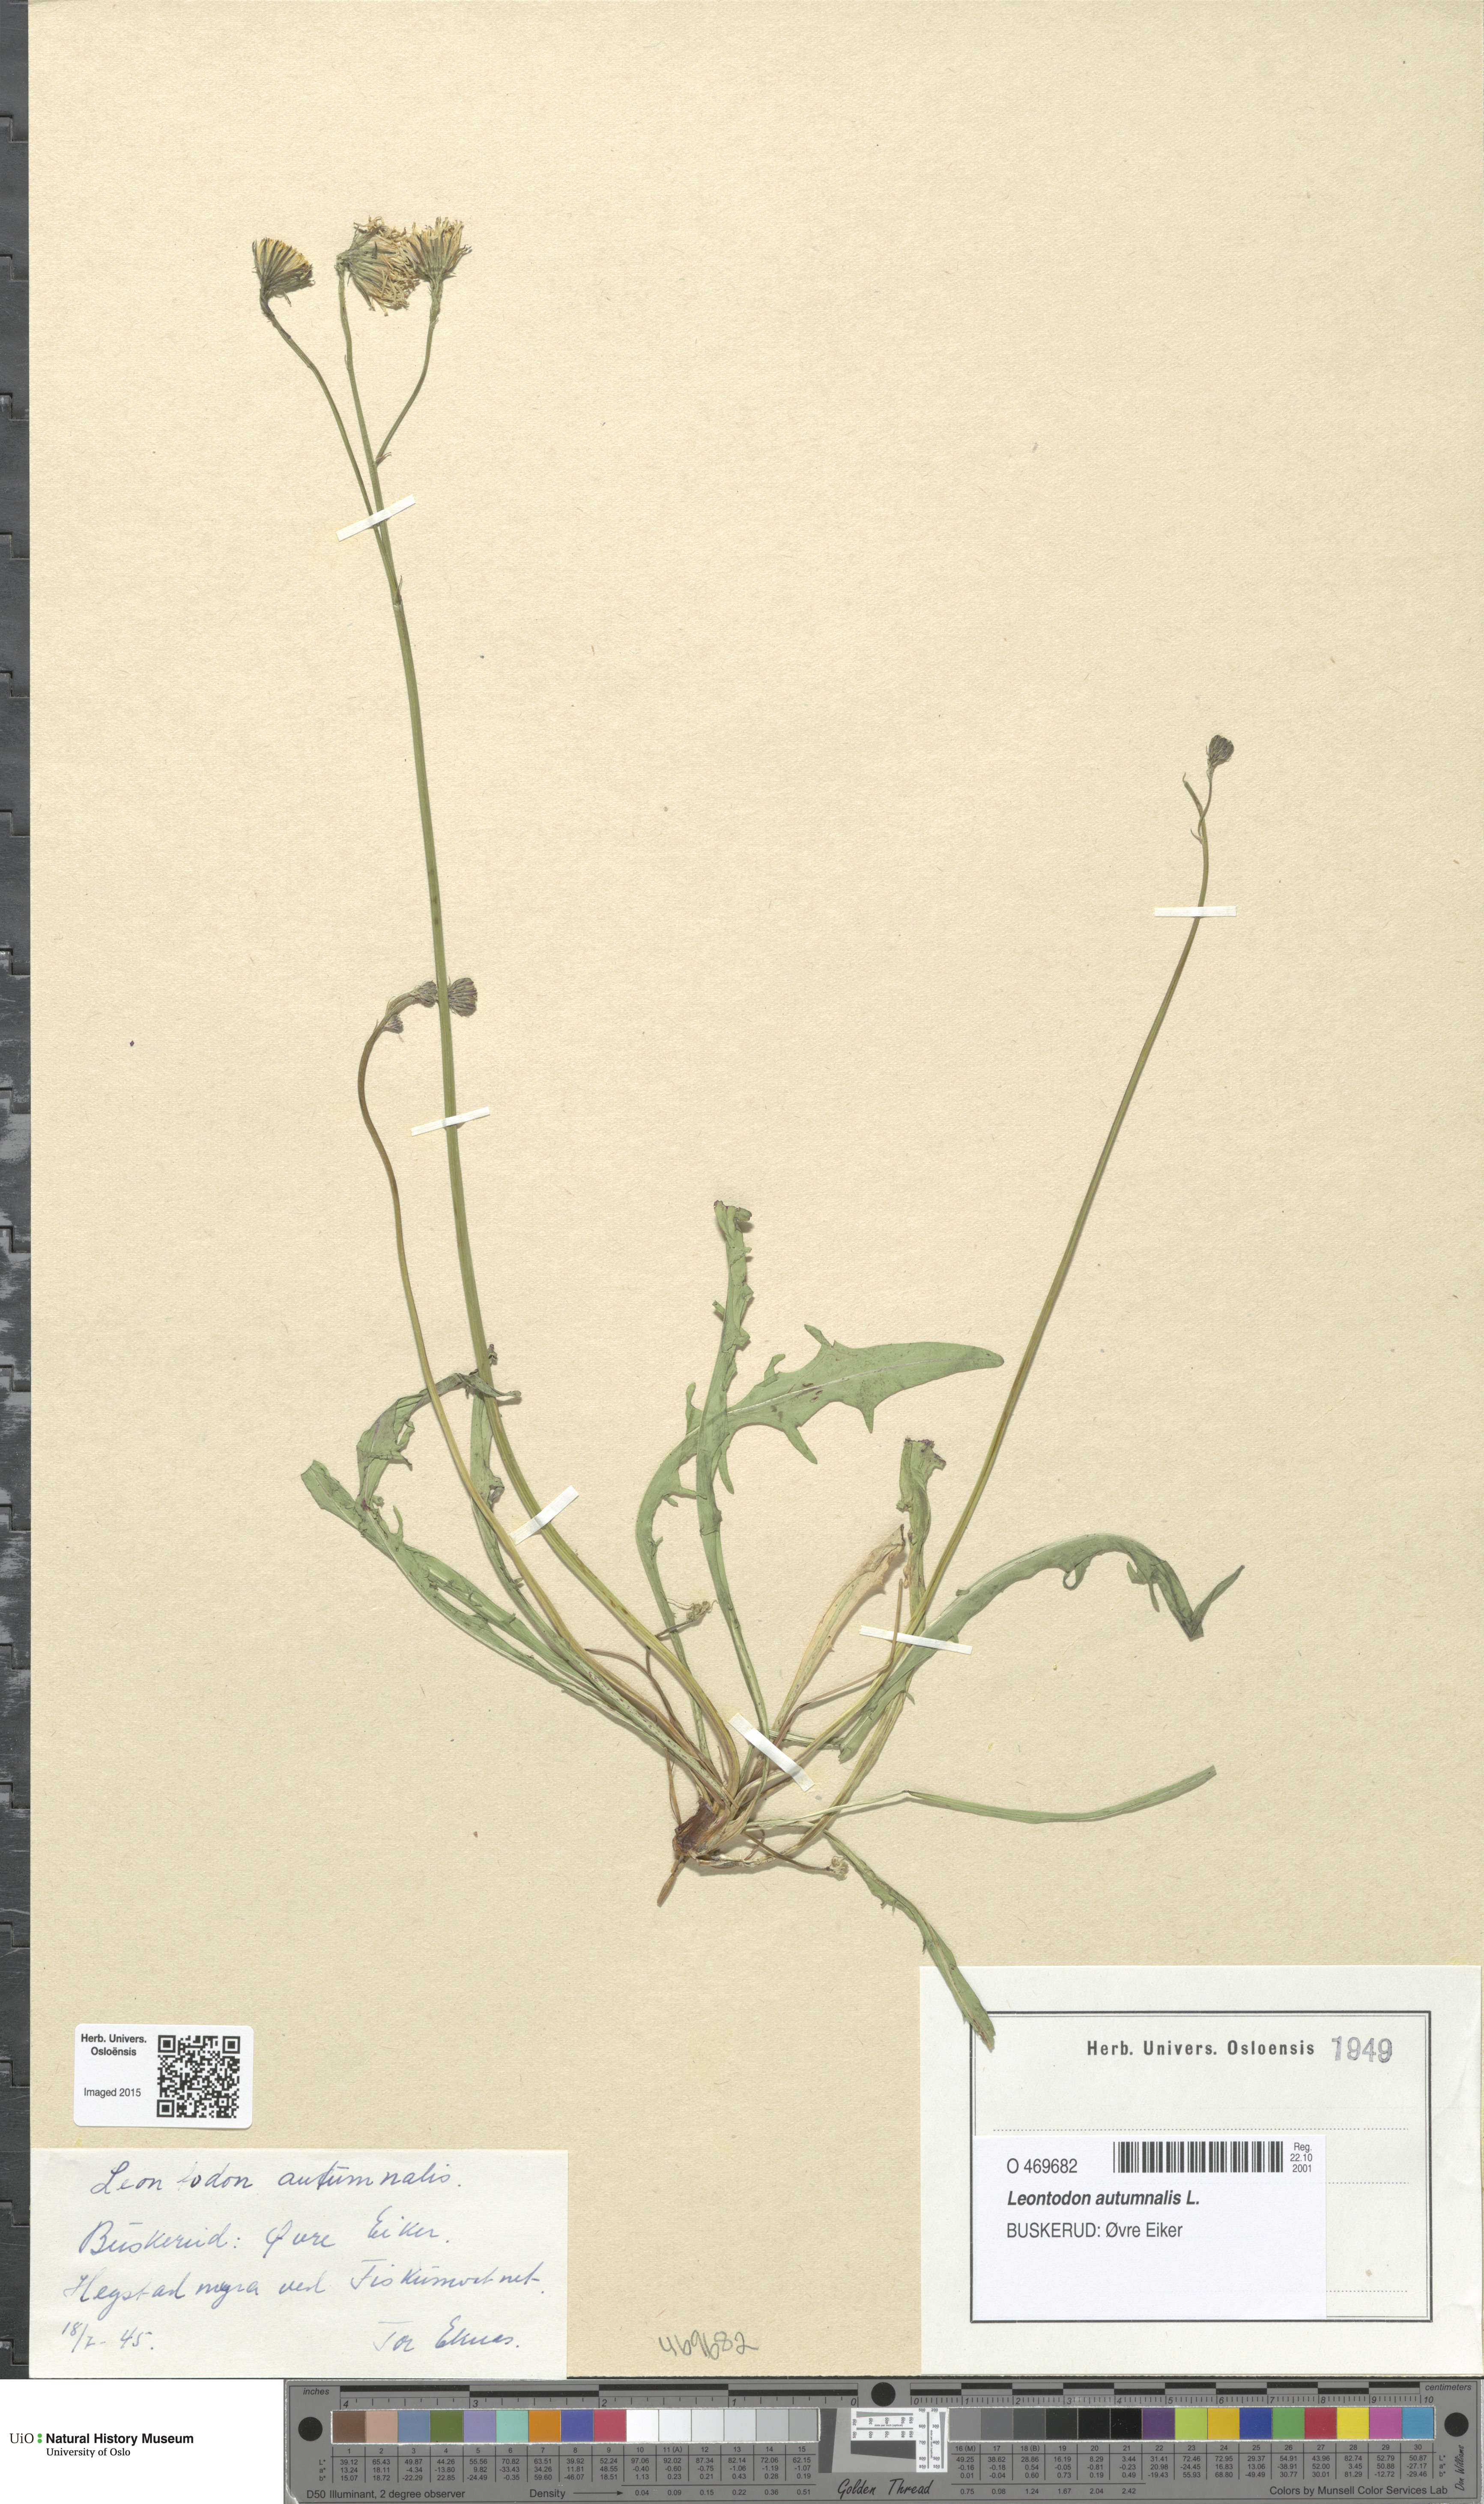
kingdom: Plantae
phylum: Tracheophyta
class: Magnoliopsida
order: Asterales
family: Asteraceae
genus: Scorzoneroides
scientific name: Scorzoneroides autumnalis
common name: Autumn hawkbit
